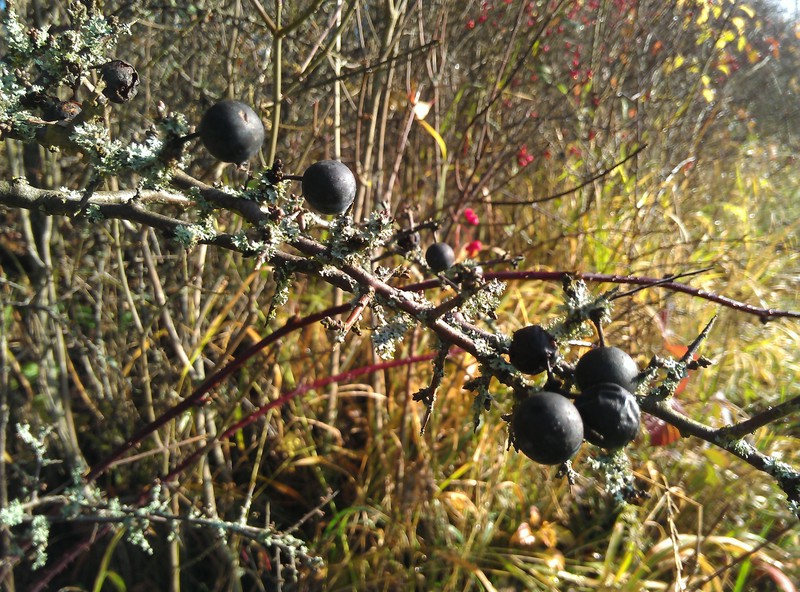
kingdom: Fungi
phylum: Basidiomycota
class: Tremellomycetes
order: Filobasidiales
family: Filobasidiaceae
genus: Zyzygomyces
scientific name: Zyzygomyces physciacearum
